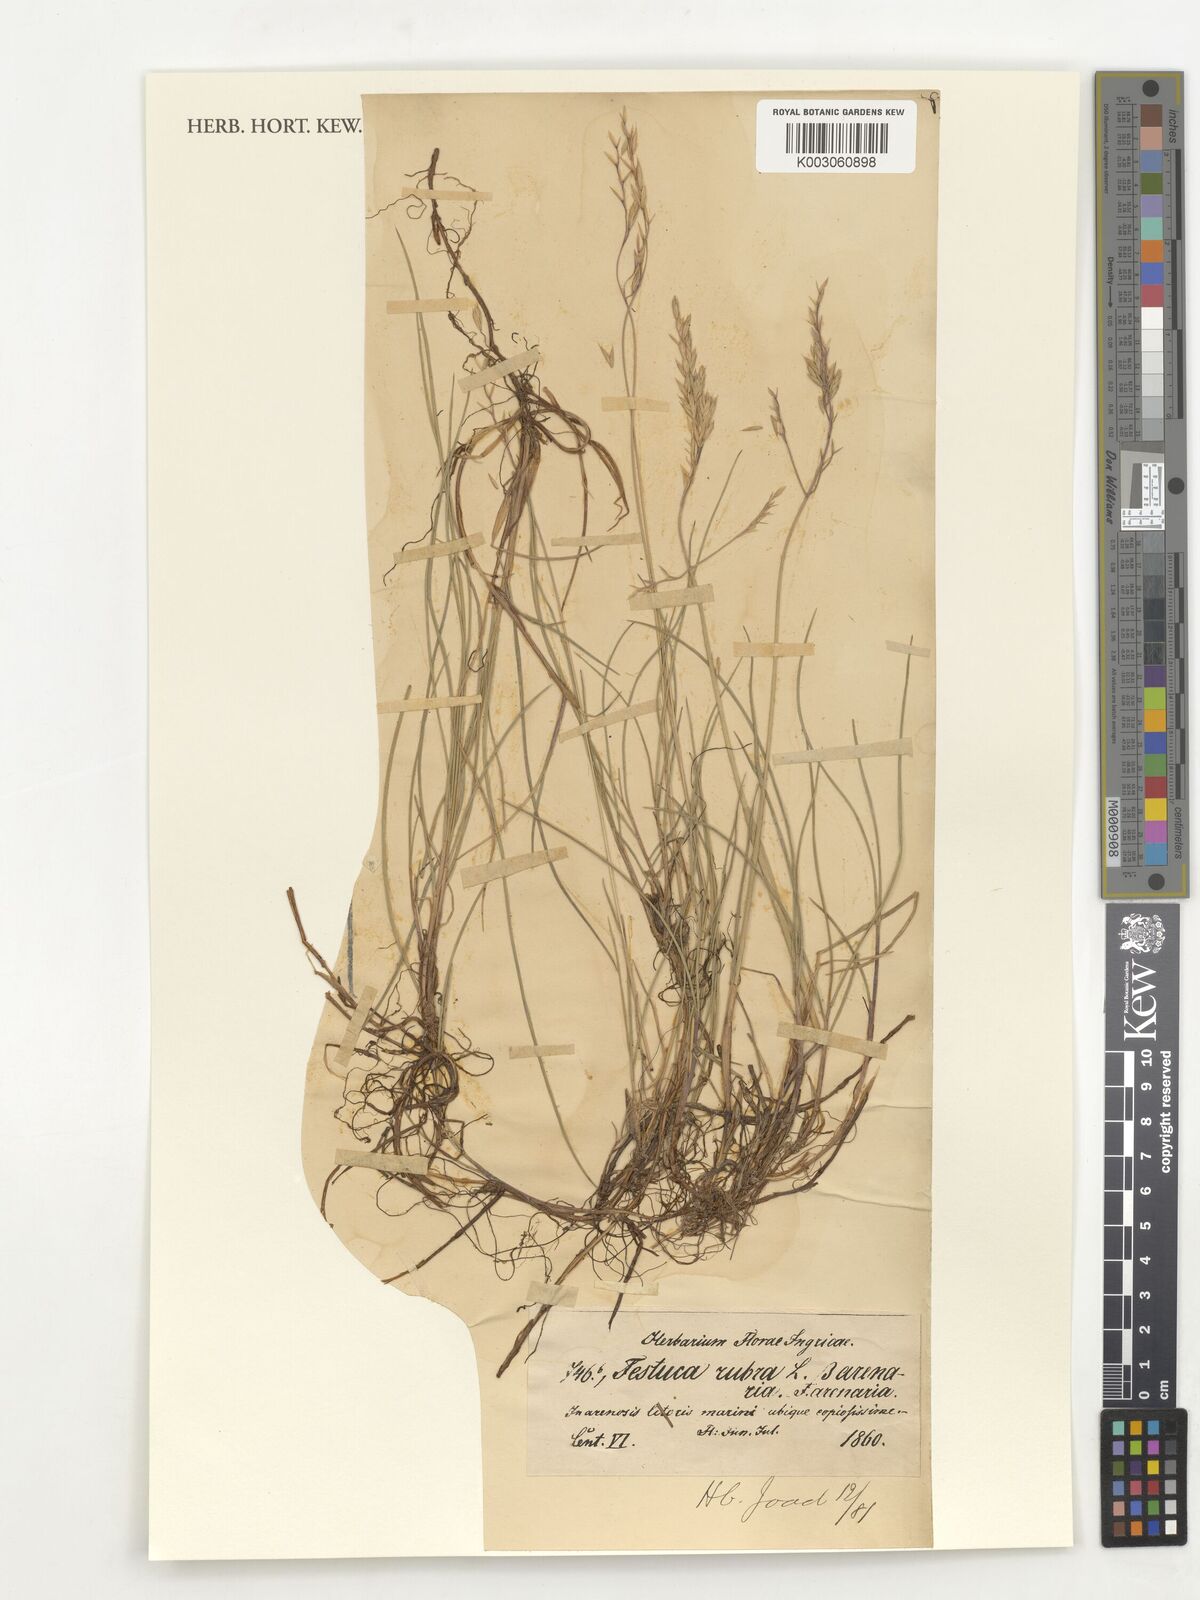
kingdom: Plantae
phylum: Tracheophyta
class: Liliopsida
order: Poales
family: Poaceae
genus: Festuca
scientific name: Festuca rubra
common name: Red fescue
